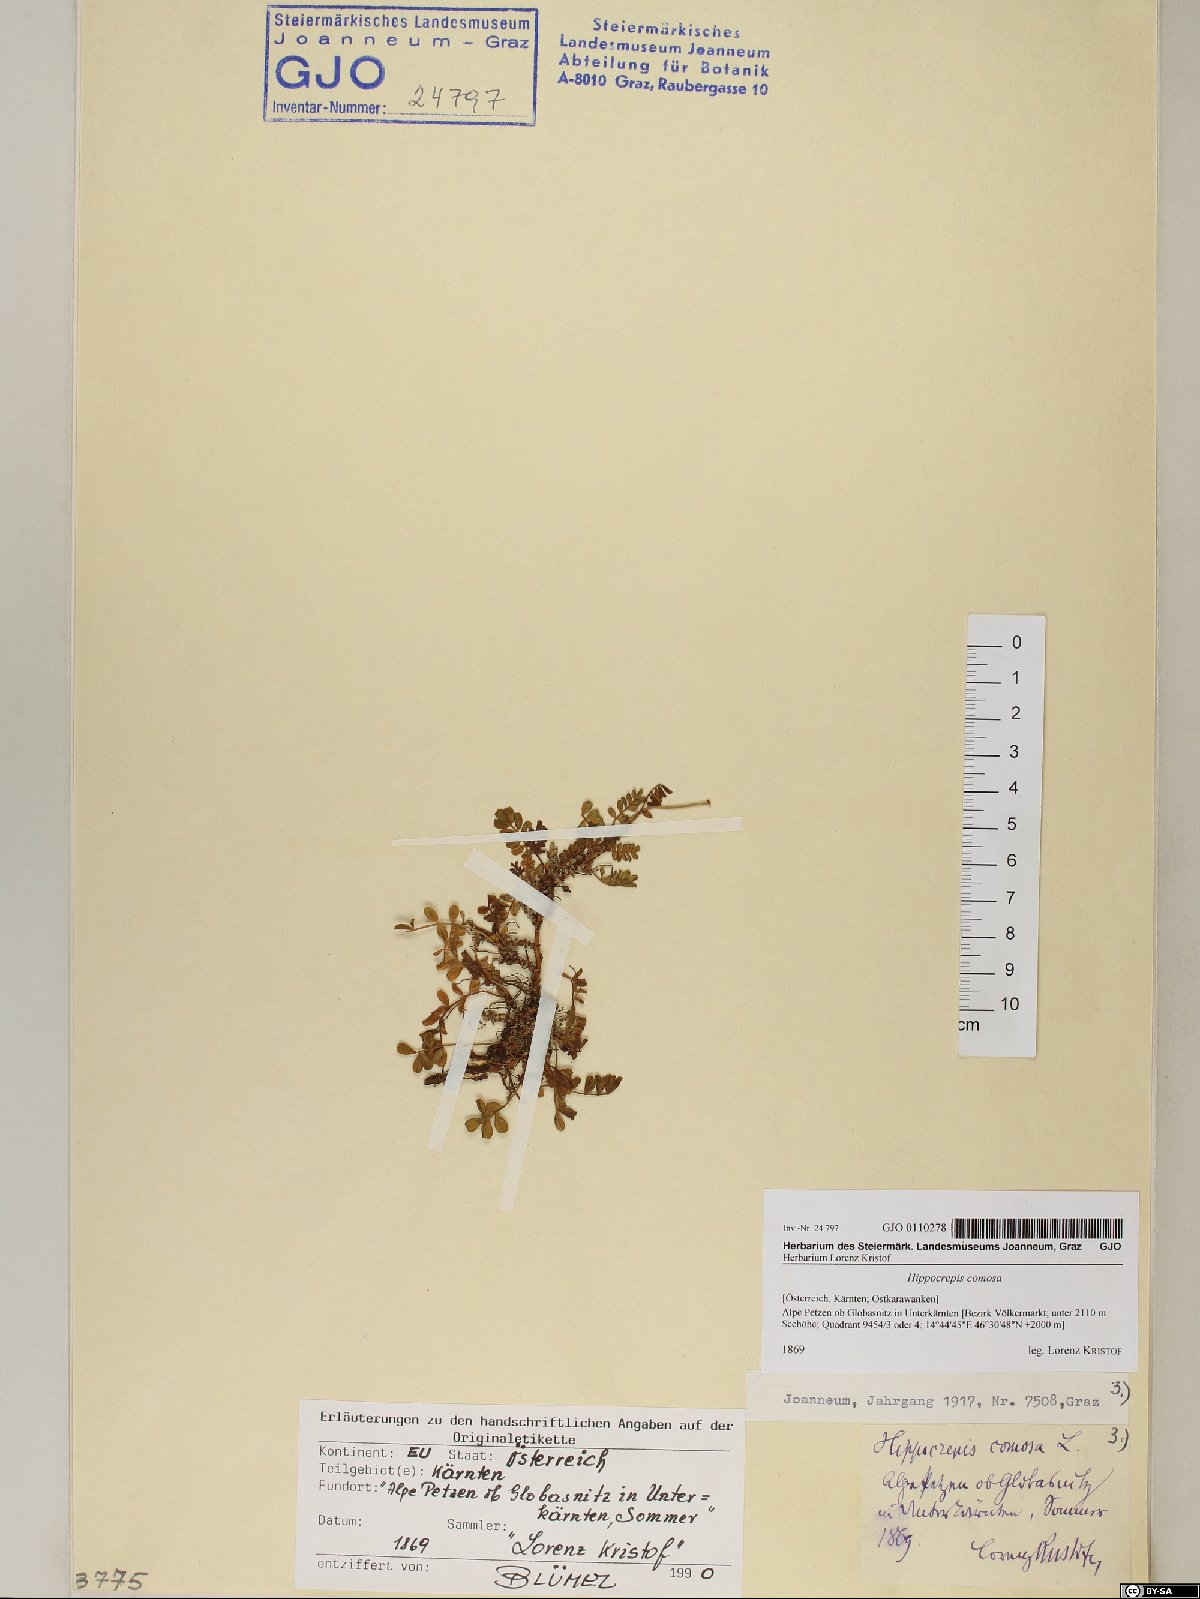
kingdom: Plantae
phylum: Tracheophyta
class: Magnoliopsida
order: Fabales
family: Fabaceae
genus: Hippocrepis
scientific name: Hippocrepis comosa
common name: Horseshoe vetch
